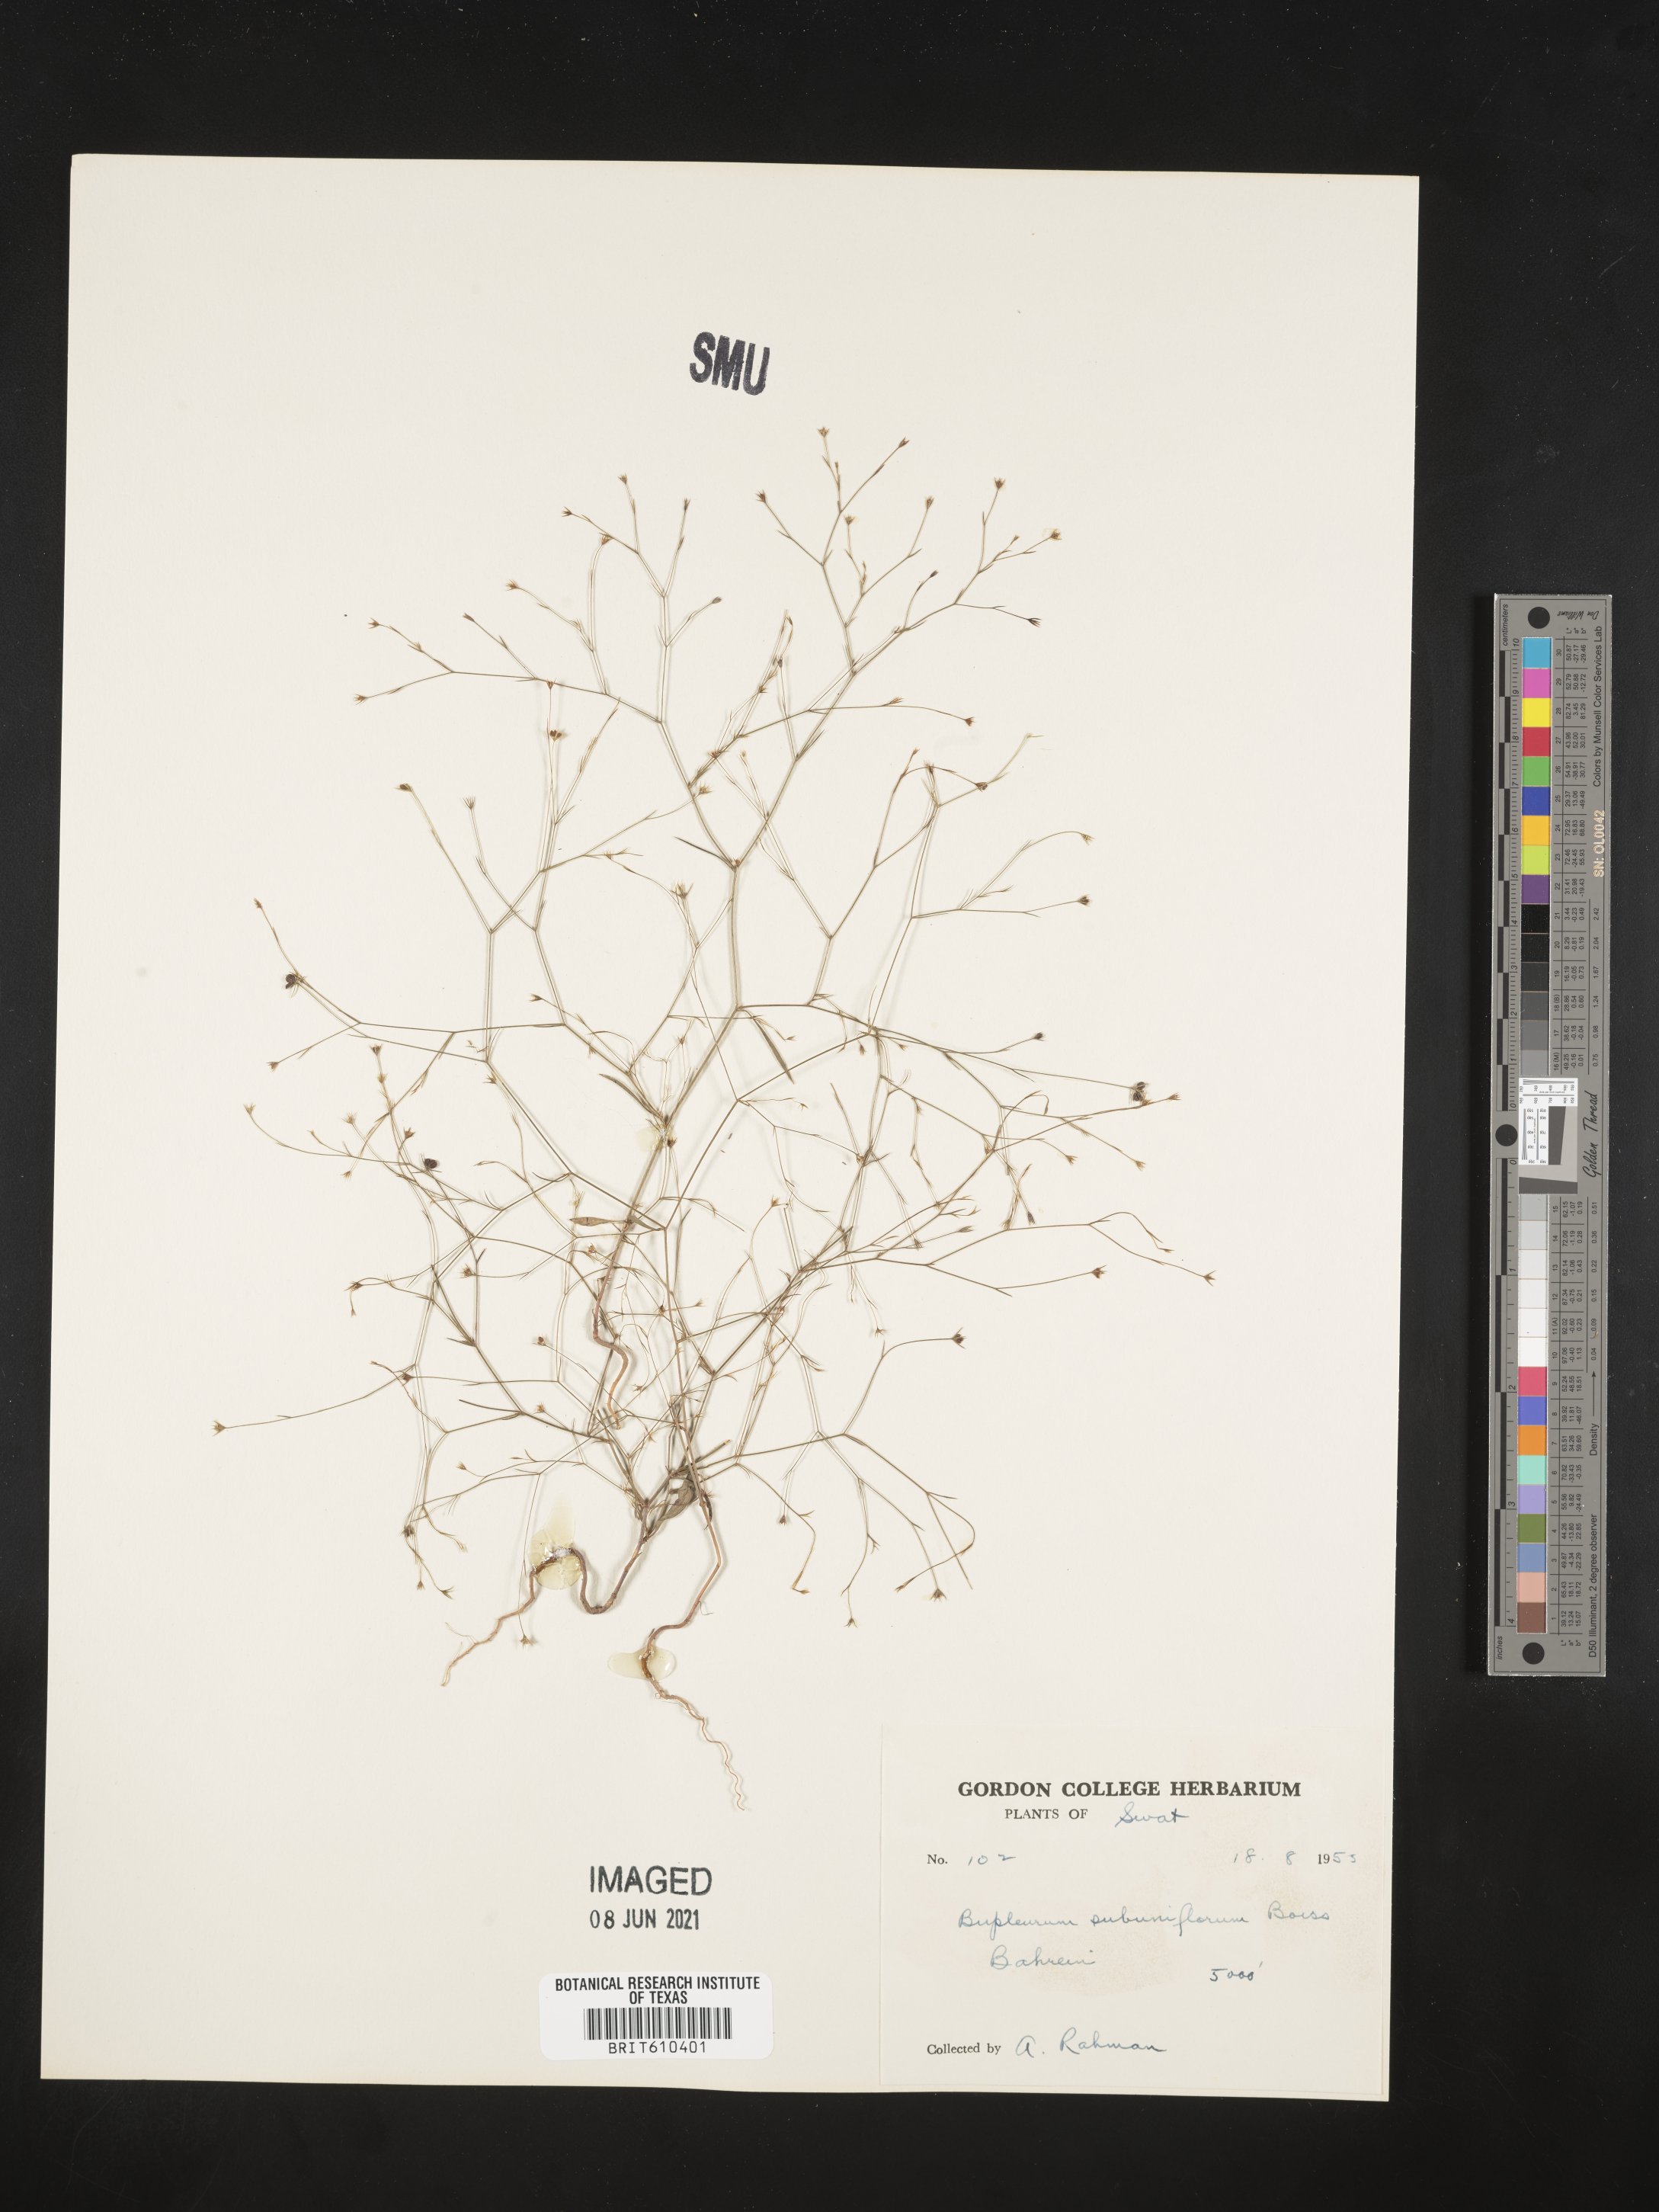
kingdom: Plantae
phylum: Tracheophyta
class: Magnoliopsida
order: Apiales
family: Apiaceae
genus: Bupleurum
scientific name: Bupleurum subuniflorum
